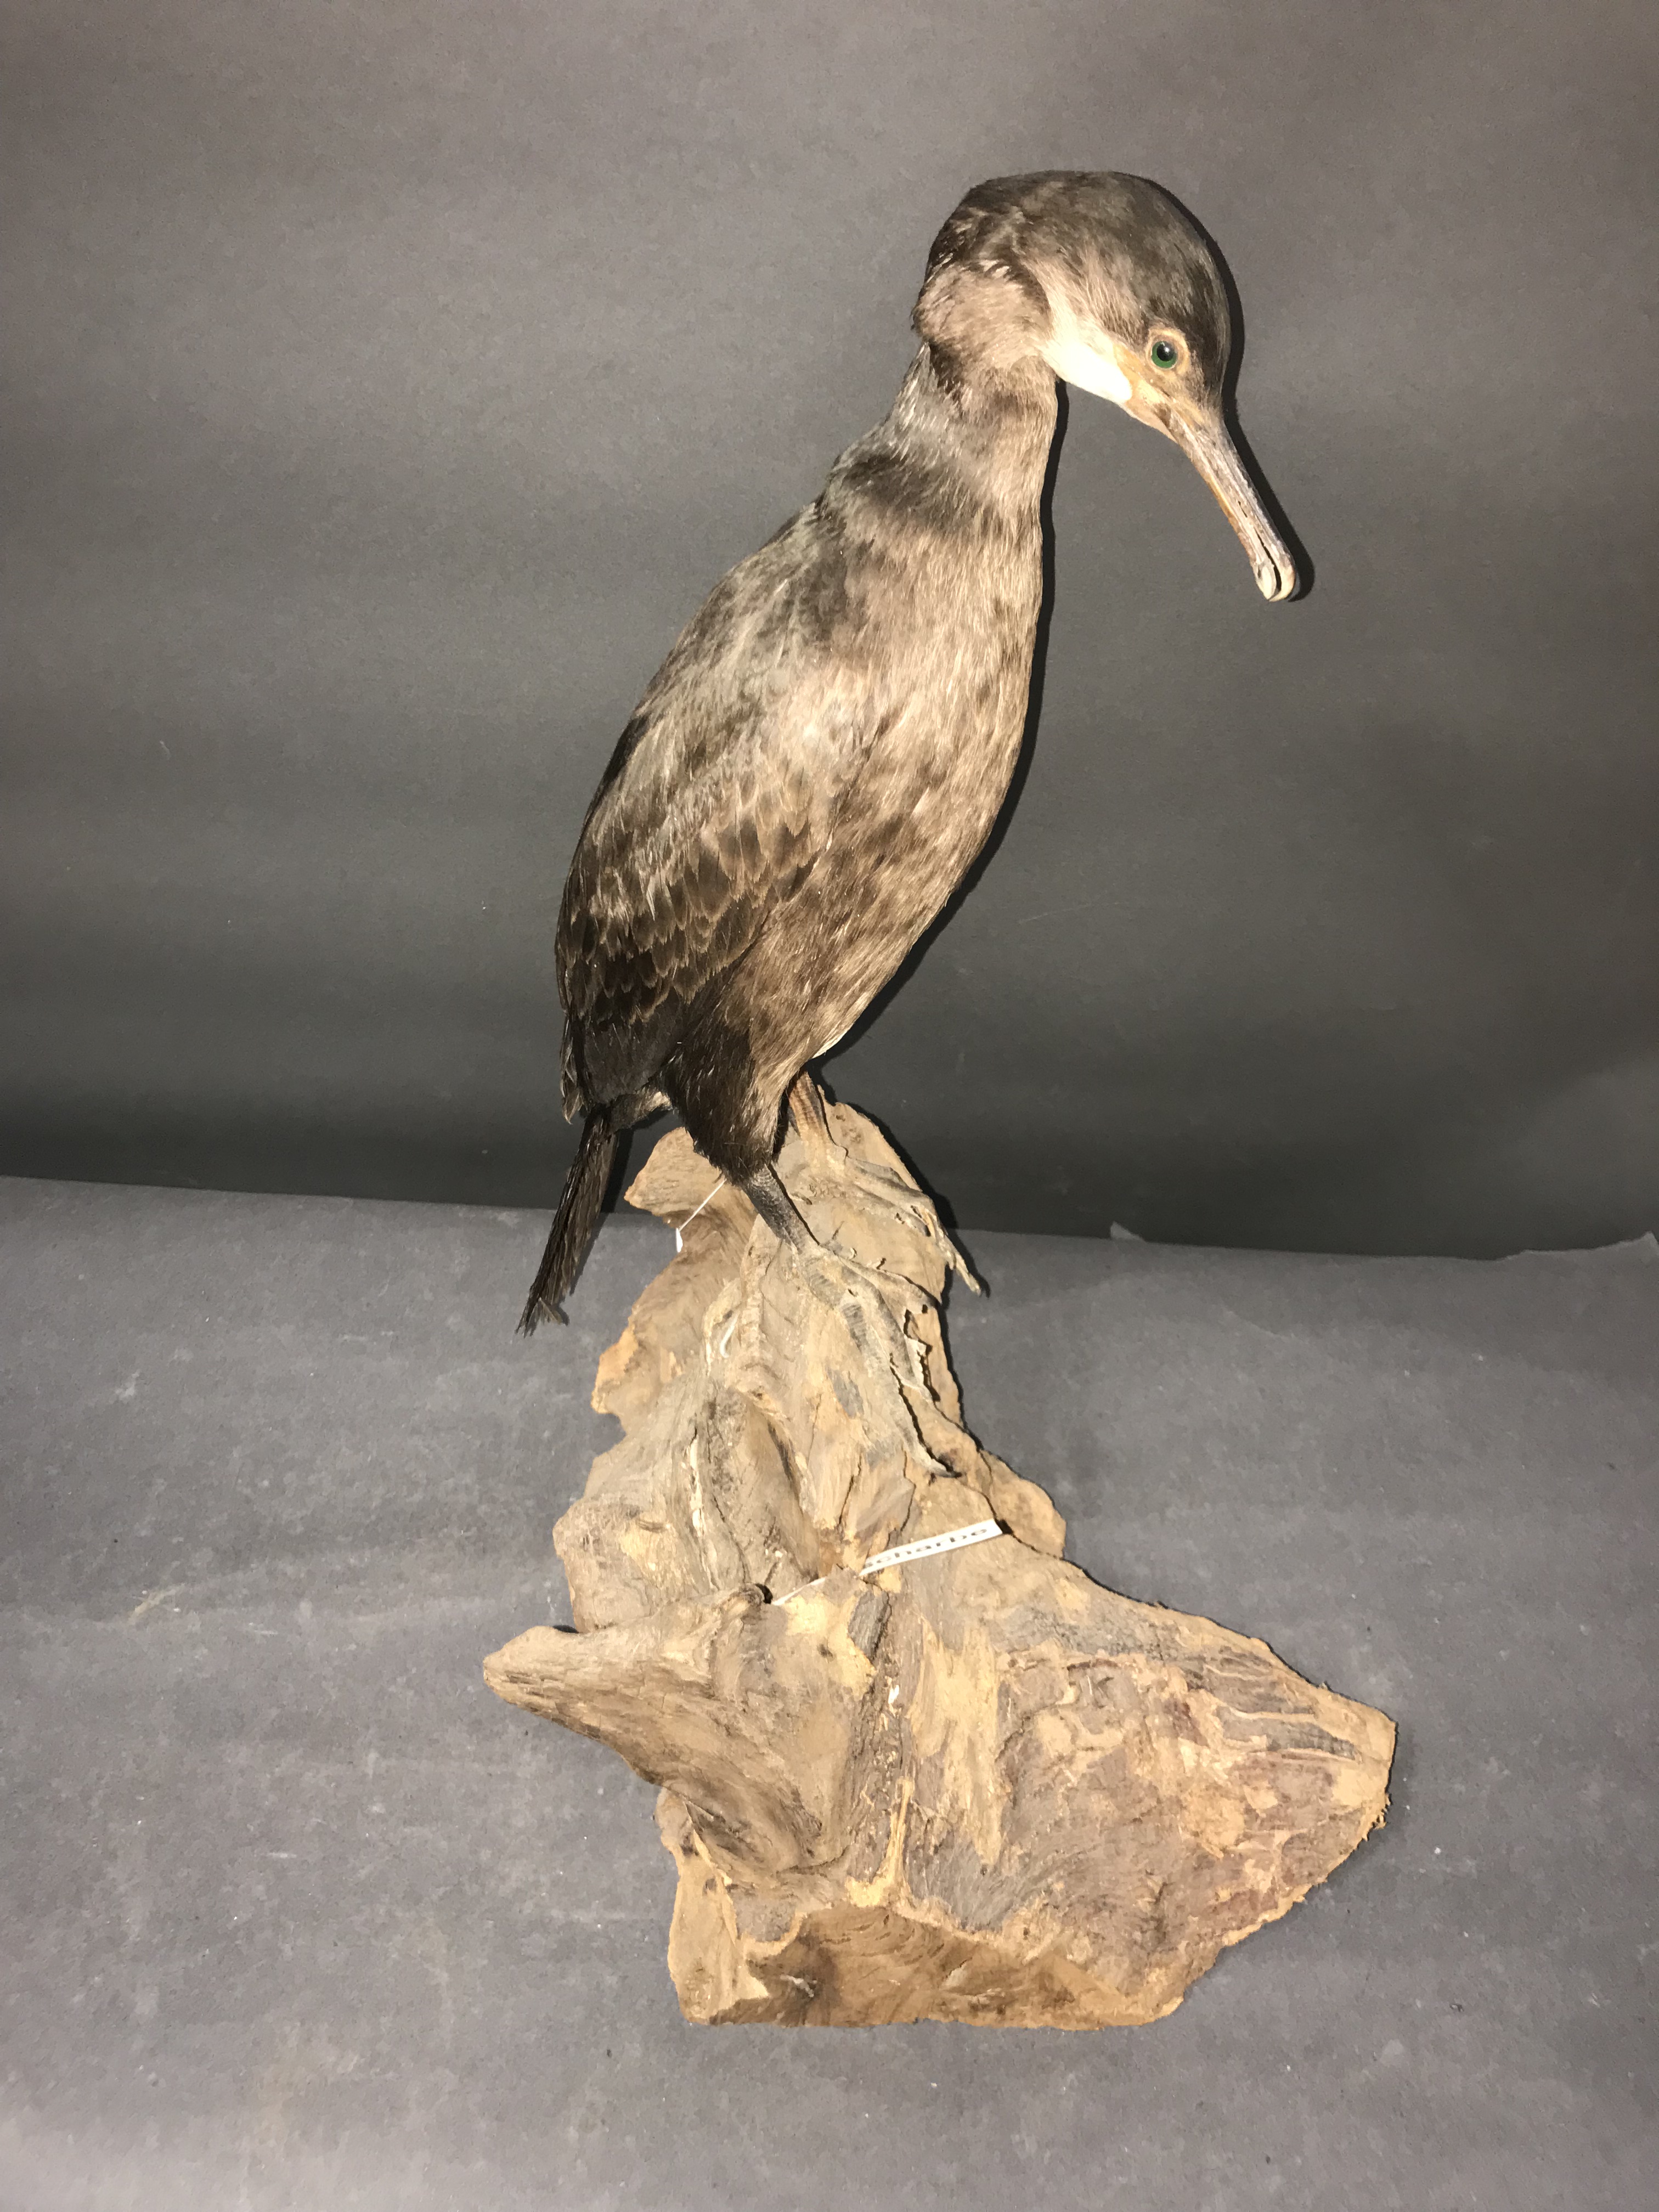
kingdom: Animalia
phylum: Chordata
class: Aves
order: Suliformes
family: Phalacrocoracidae
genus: Phalacrocorax
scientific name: Phalacrocorax aristotelis
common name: European shag
